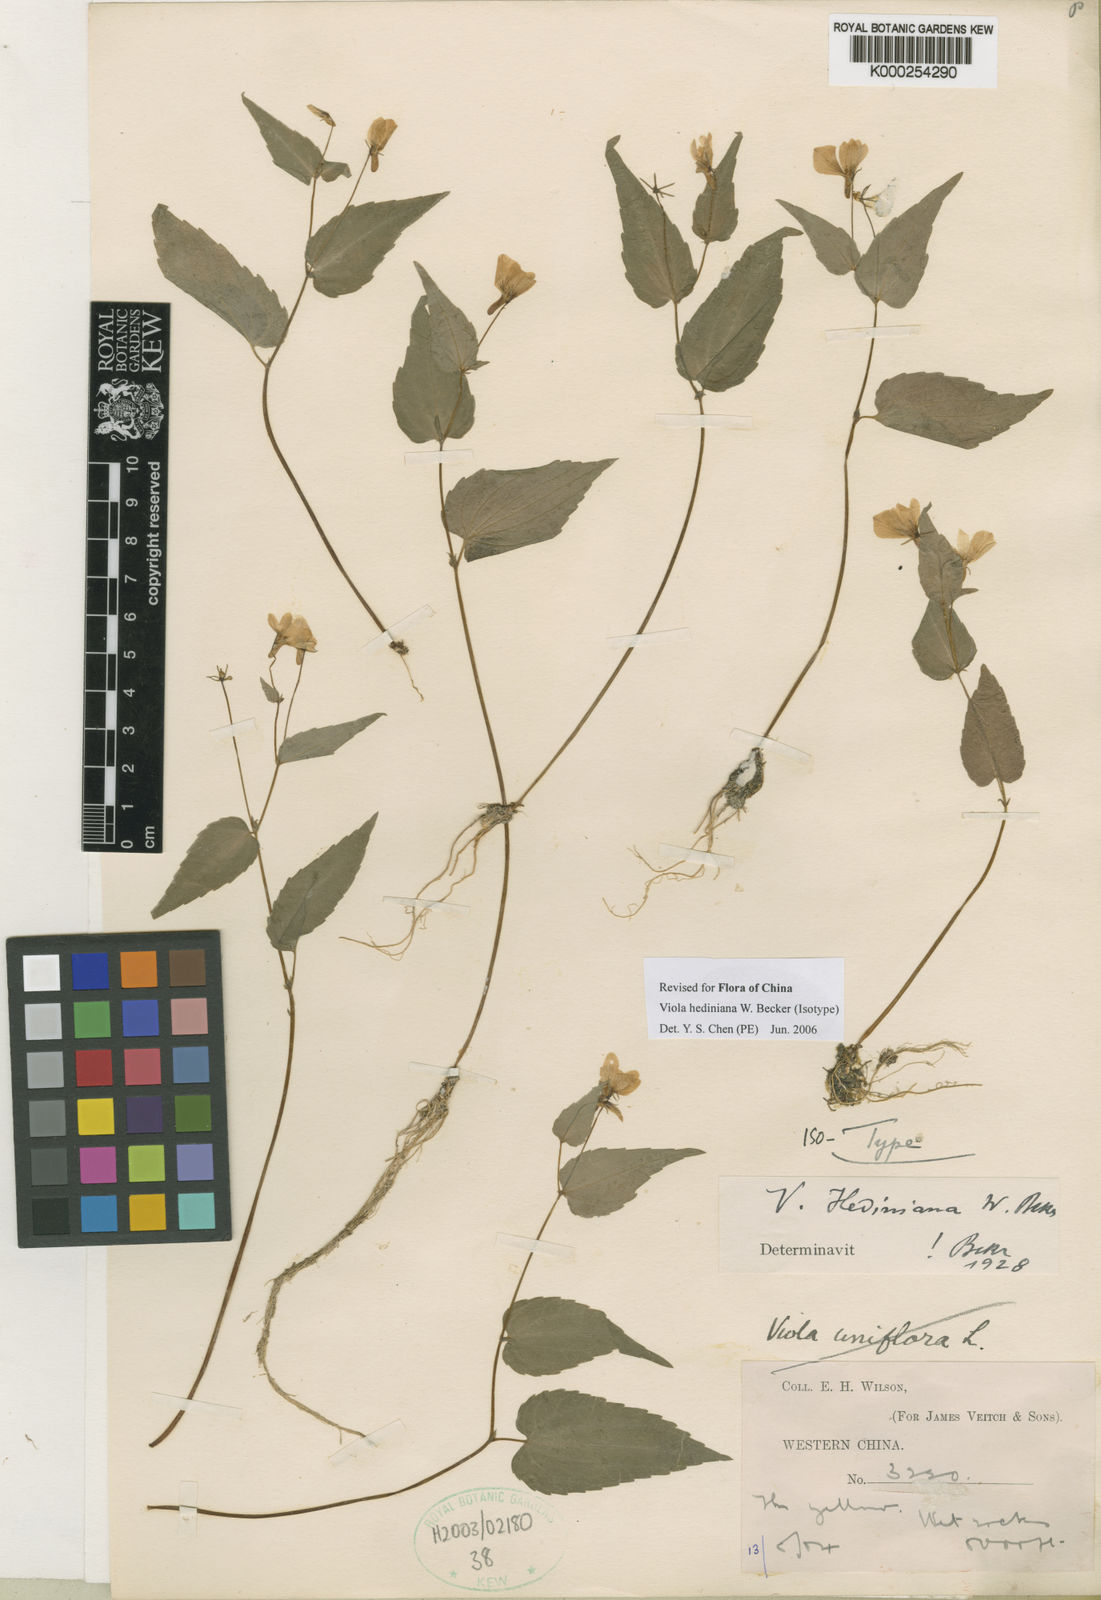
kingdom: Plantae
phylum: Tracheophyta
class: Magnoliopsida
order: Malpighiales
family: Violaceae
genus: Viola
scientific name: Viola hediniana
